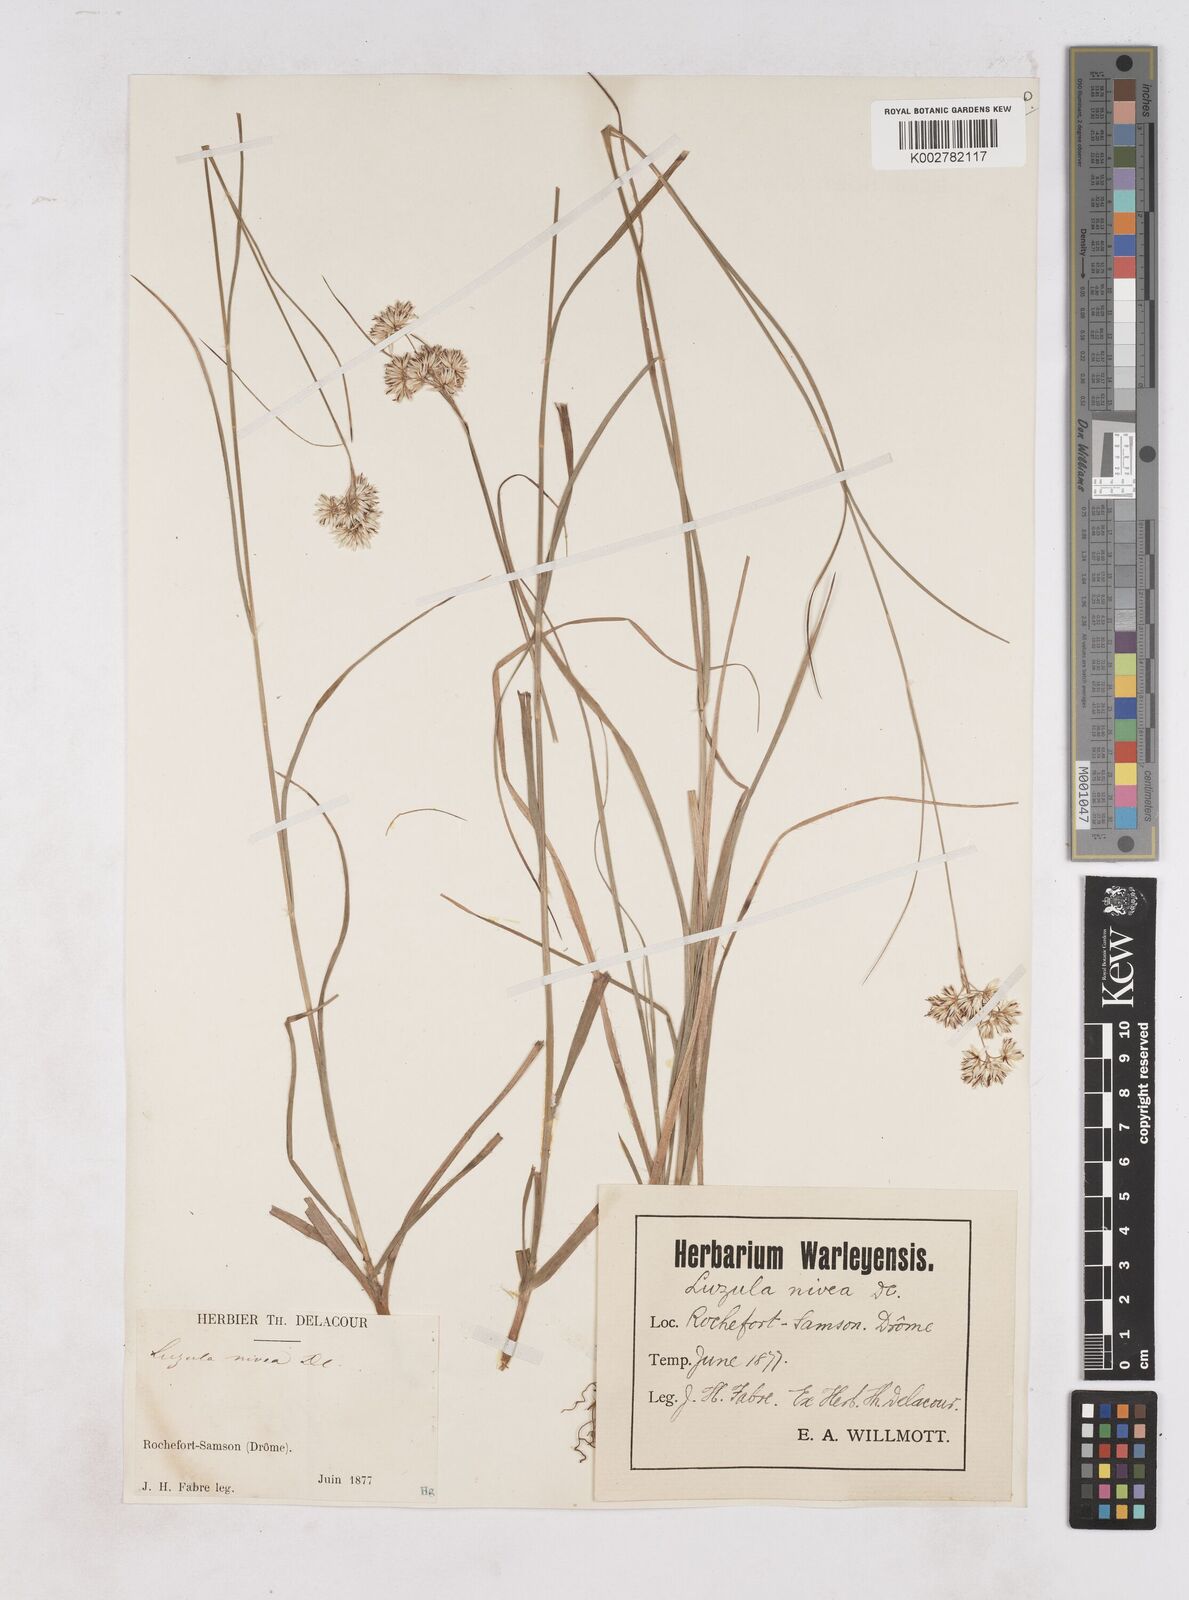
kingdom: Plantae
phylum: Tracheophyta
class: Liliopsida
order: Poales
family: Juncaceae
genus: Luzula
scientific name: Luzula nivea
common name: Snow-white wood-rush
